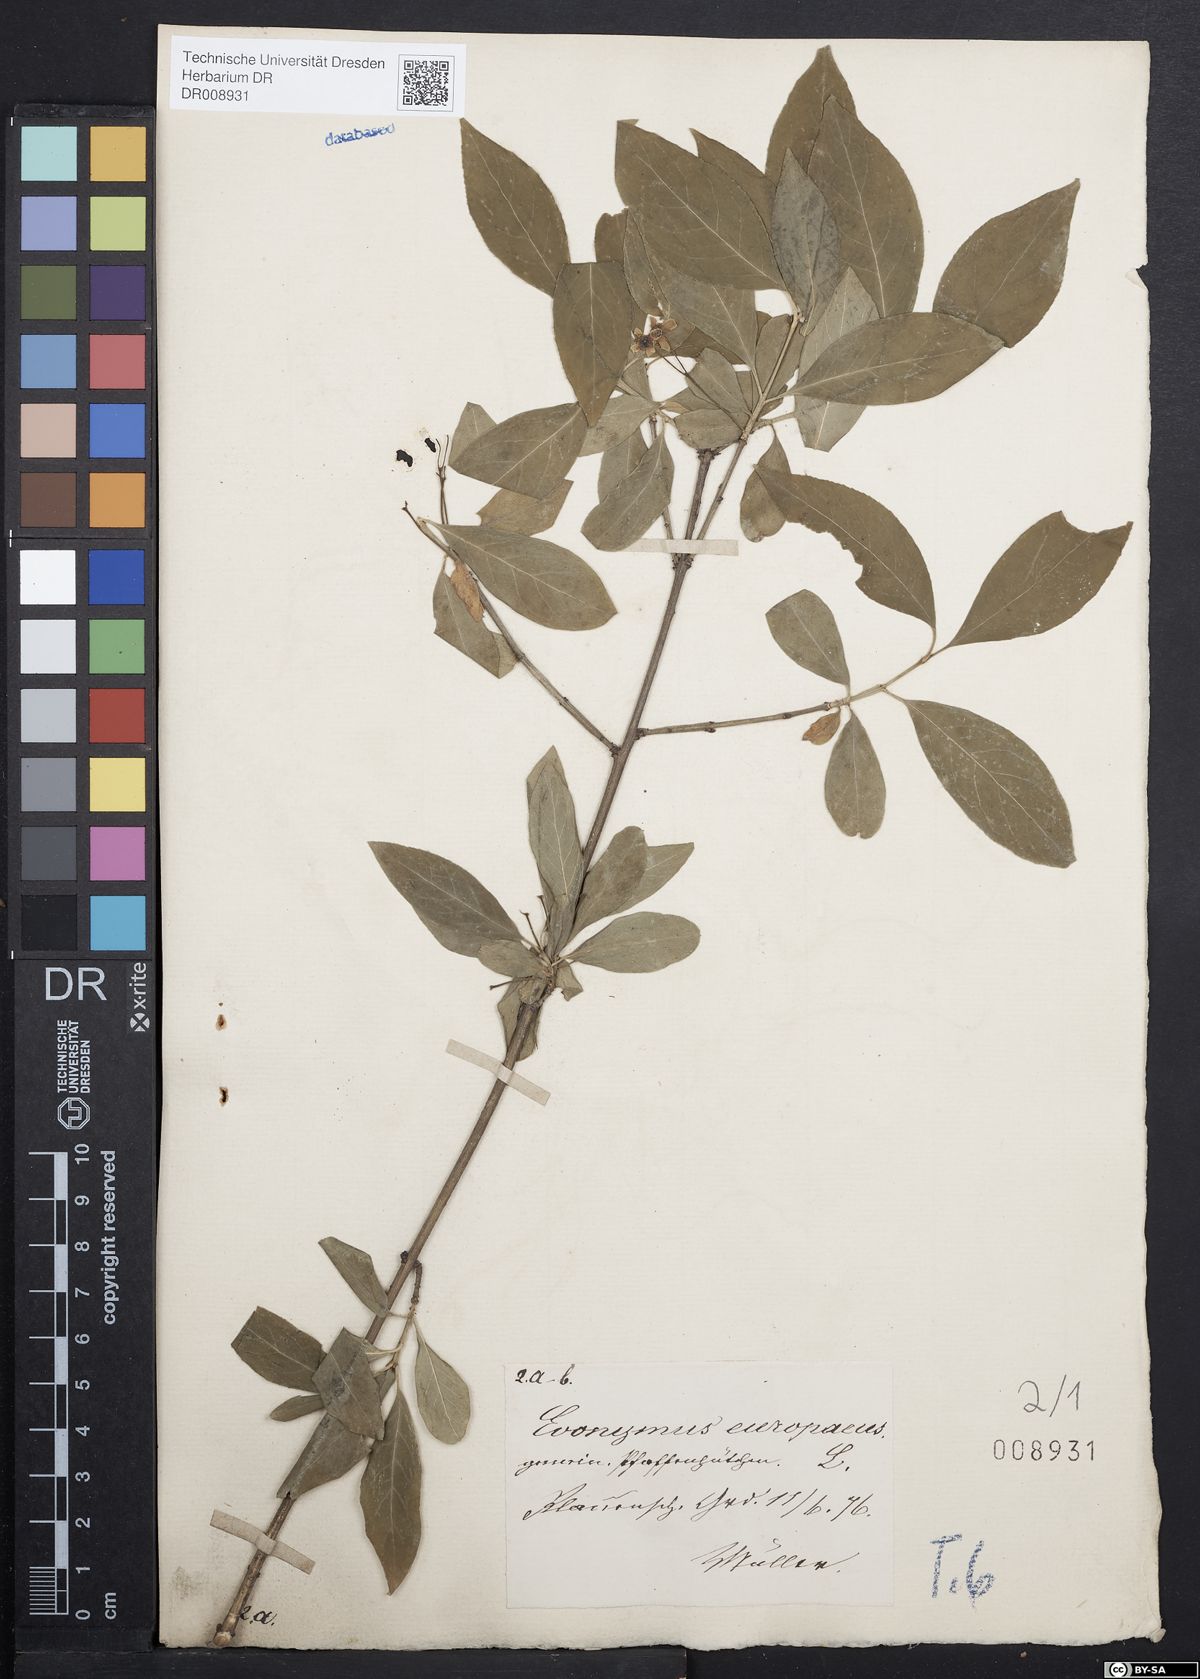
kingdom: Plantae
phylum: Tracheophyta
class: Magnoliopsida
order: Celastrales
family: Celastraceae
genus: Euonymus
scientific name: Euonymus europaeus
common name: Spindle
